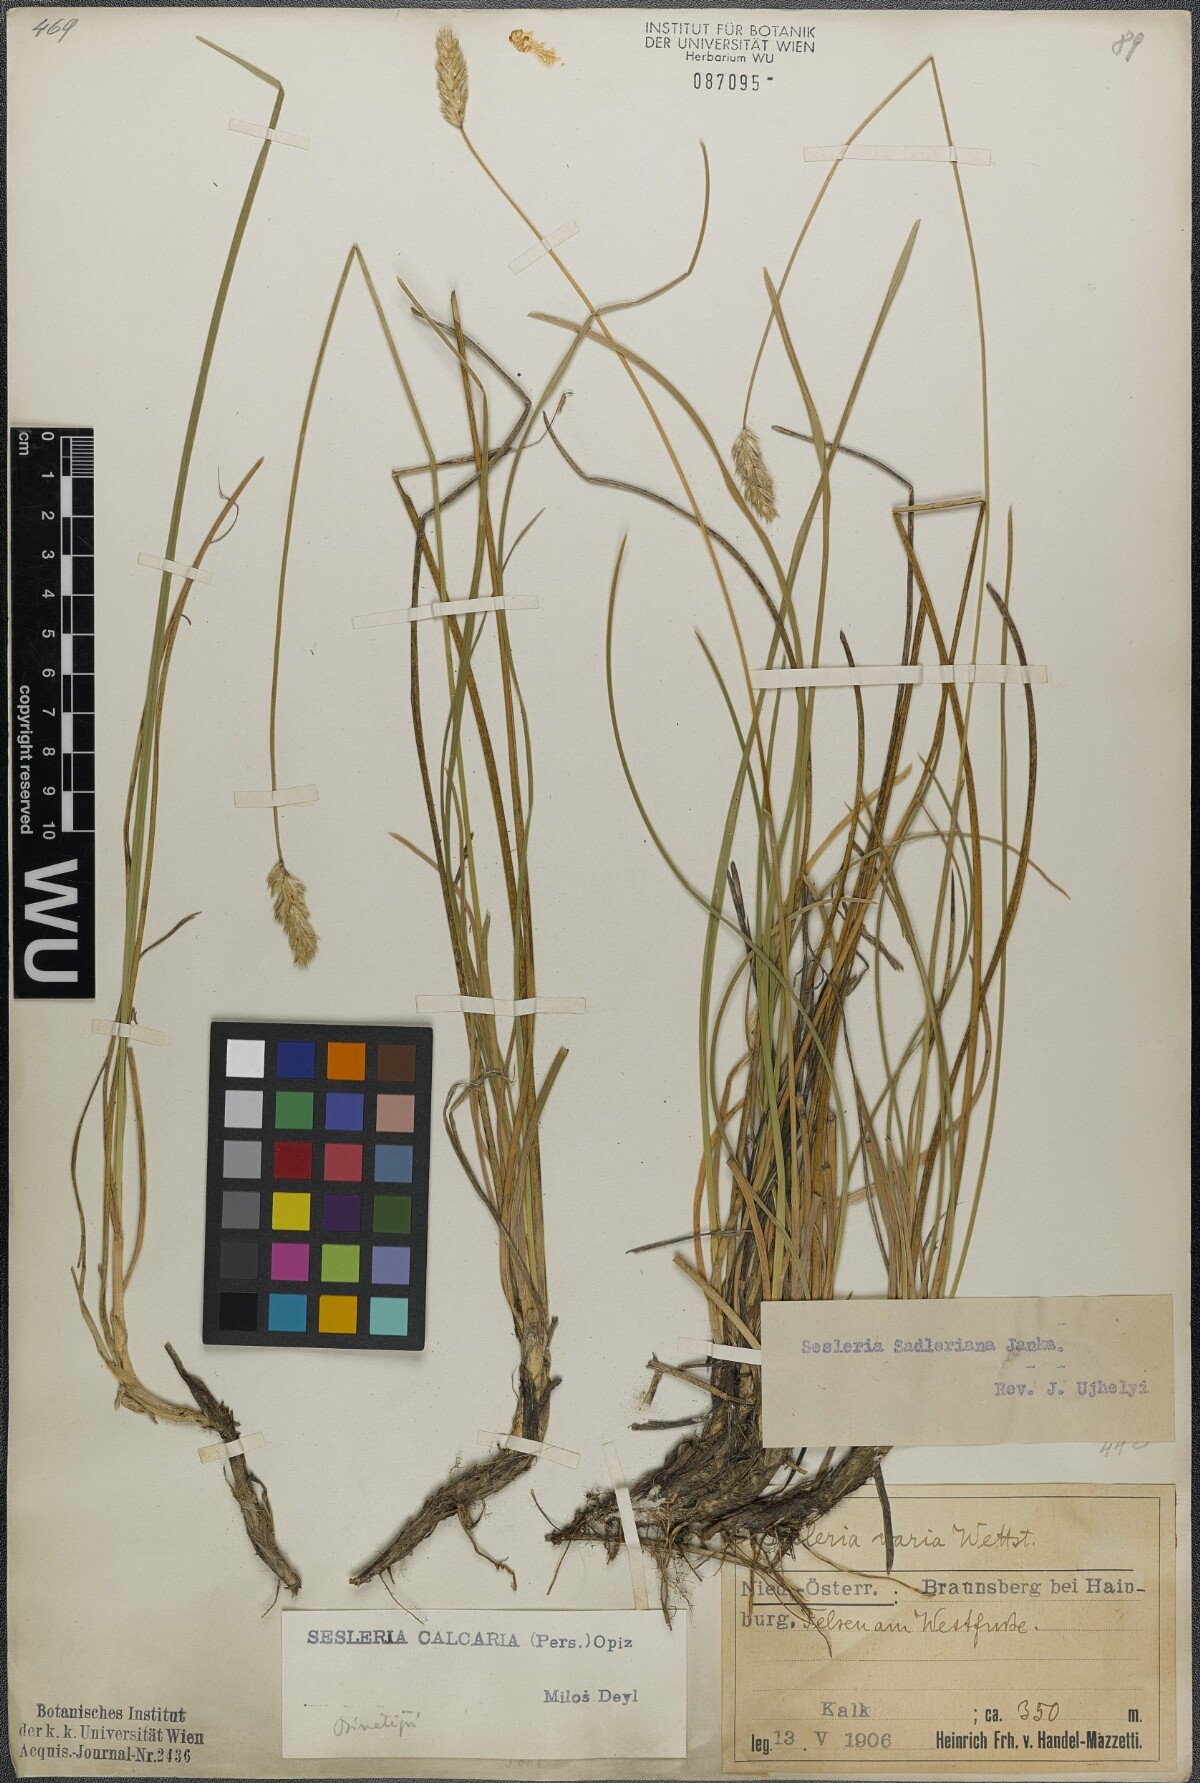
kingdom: Plantae
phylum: Tracheophyta
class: Liliopsida
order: Poales
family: Poaceae
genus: Sesleria
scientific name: Sesleria sadleriana
